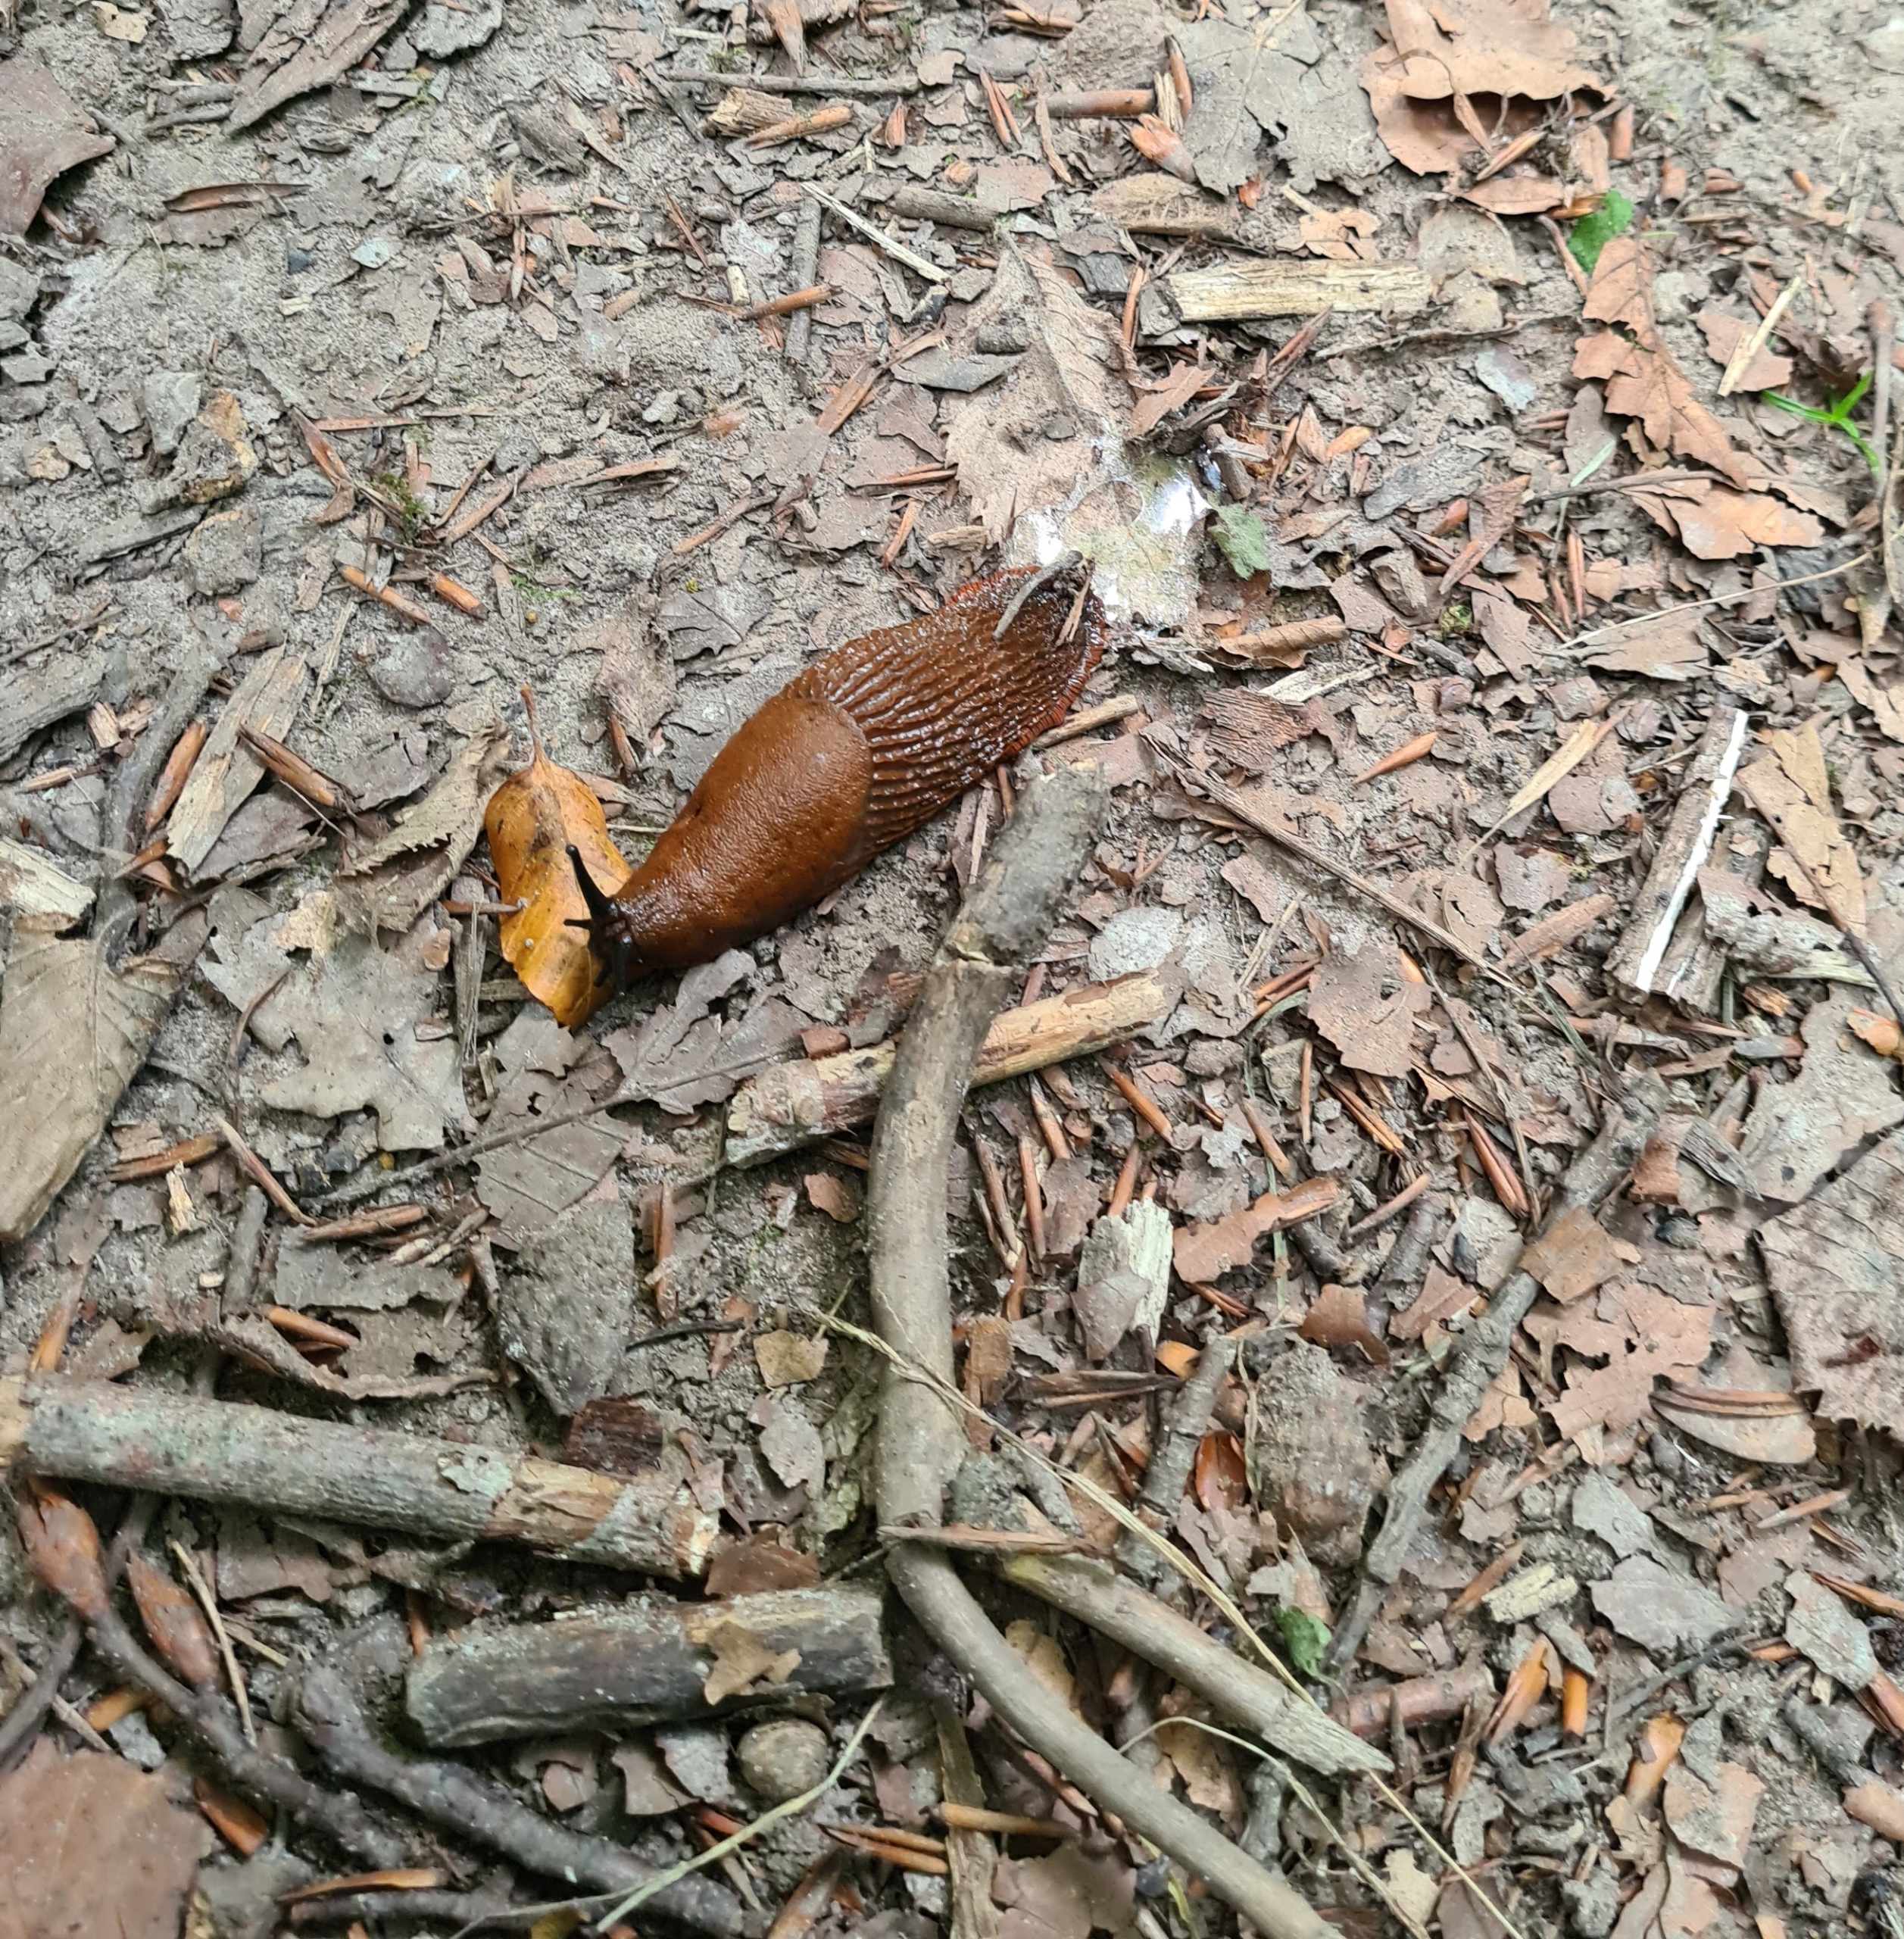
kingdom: Animalia
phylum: Mollusca
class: Gastropoda
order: Stylommatophora
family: Arionidae
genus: Arion
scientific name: Arion vulgaris
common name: Iberisk skovsnegl
